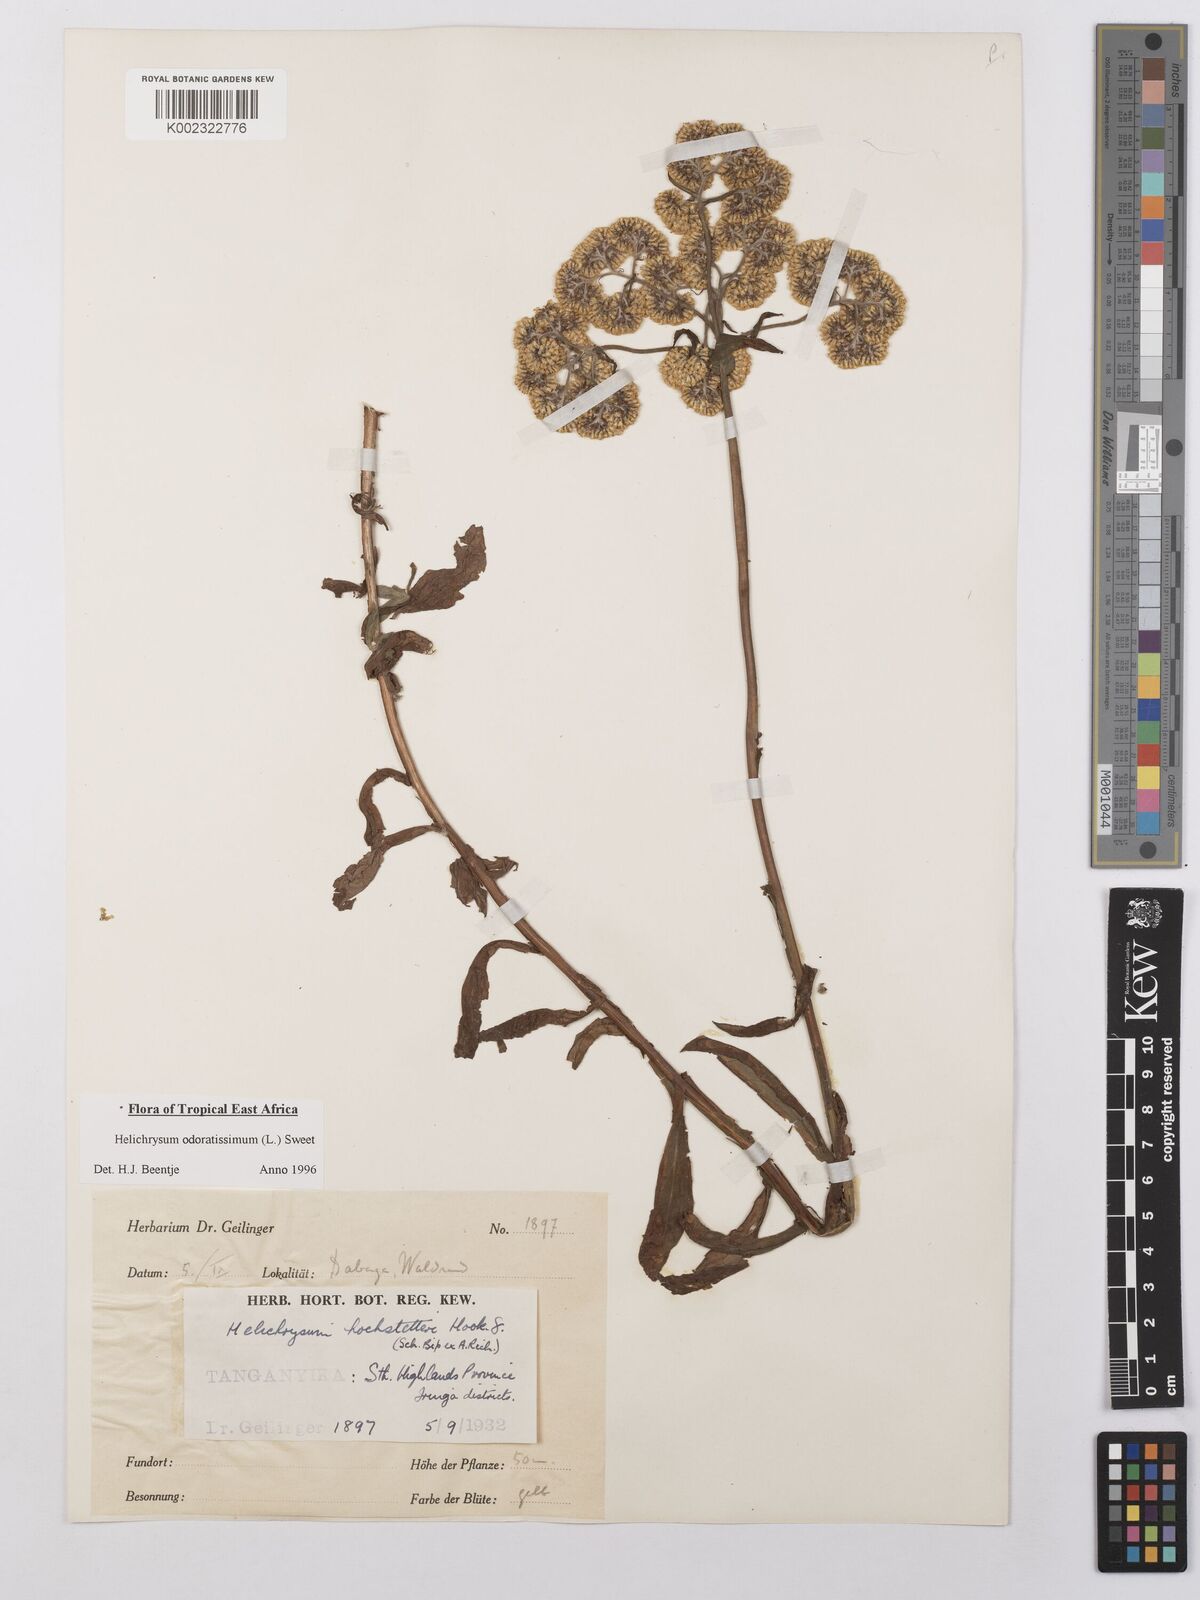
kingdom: Plantae
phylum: Tracheophyta
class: Magnoliopsida
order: Asterales
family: Asteraceae
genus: Helichrysum
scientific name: Helichrysum odoratissimum
